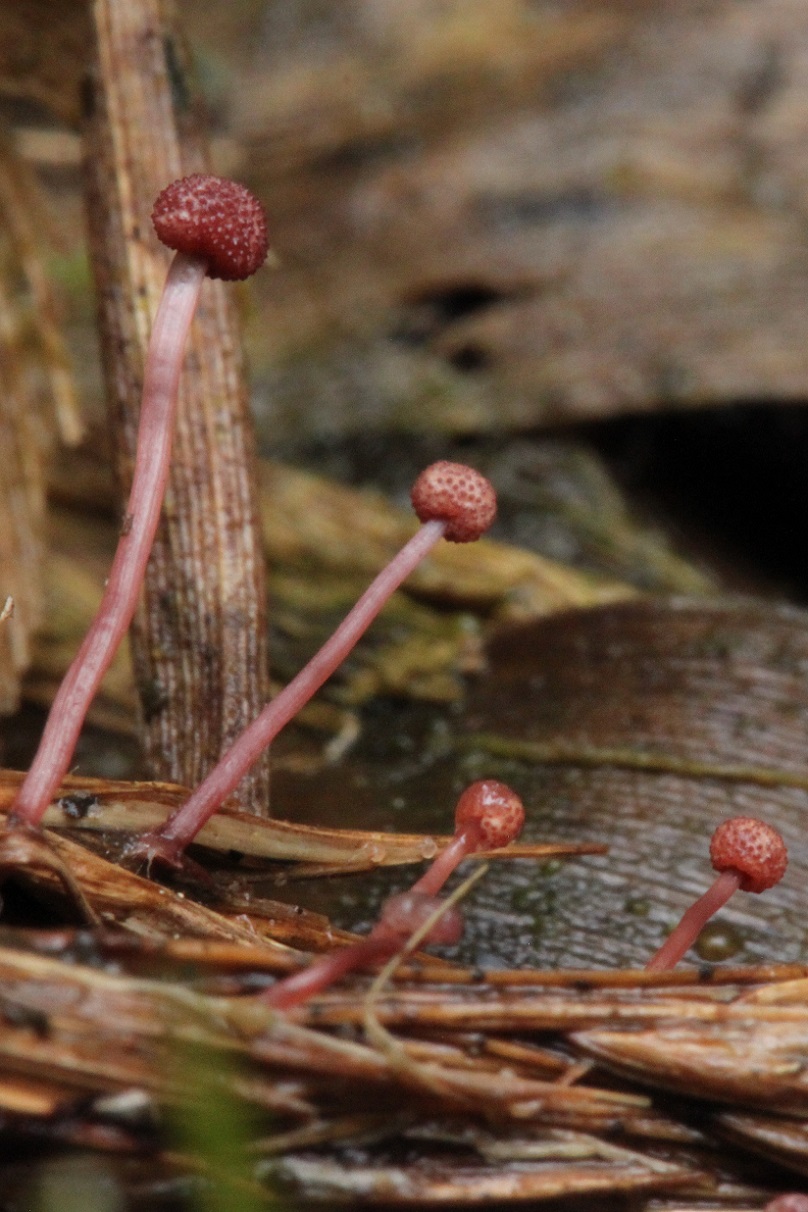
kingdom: Fungi
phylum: Ascomycota
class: Sordariomycetes
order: Hypocreales
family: Clavicipitaceae
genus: Claviceps
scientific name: Claviceps arundinis
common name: tagrør-meldrøjer
